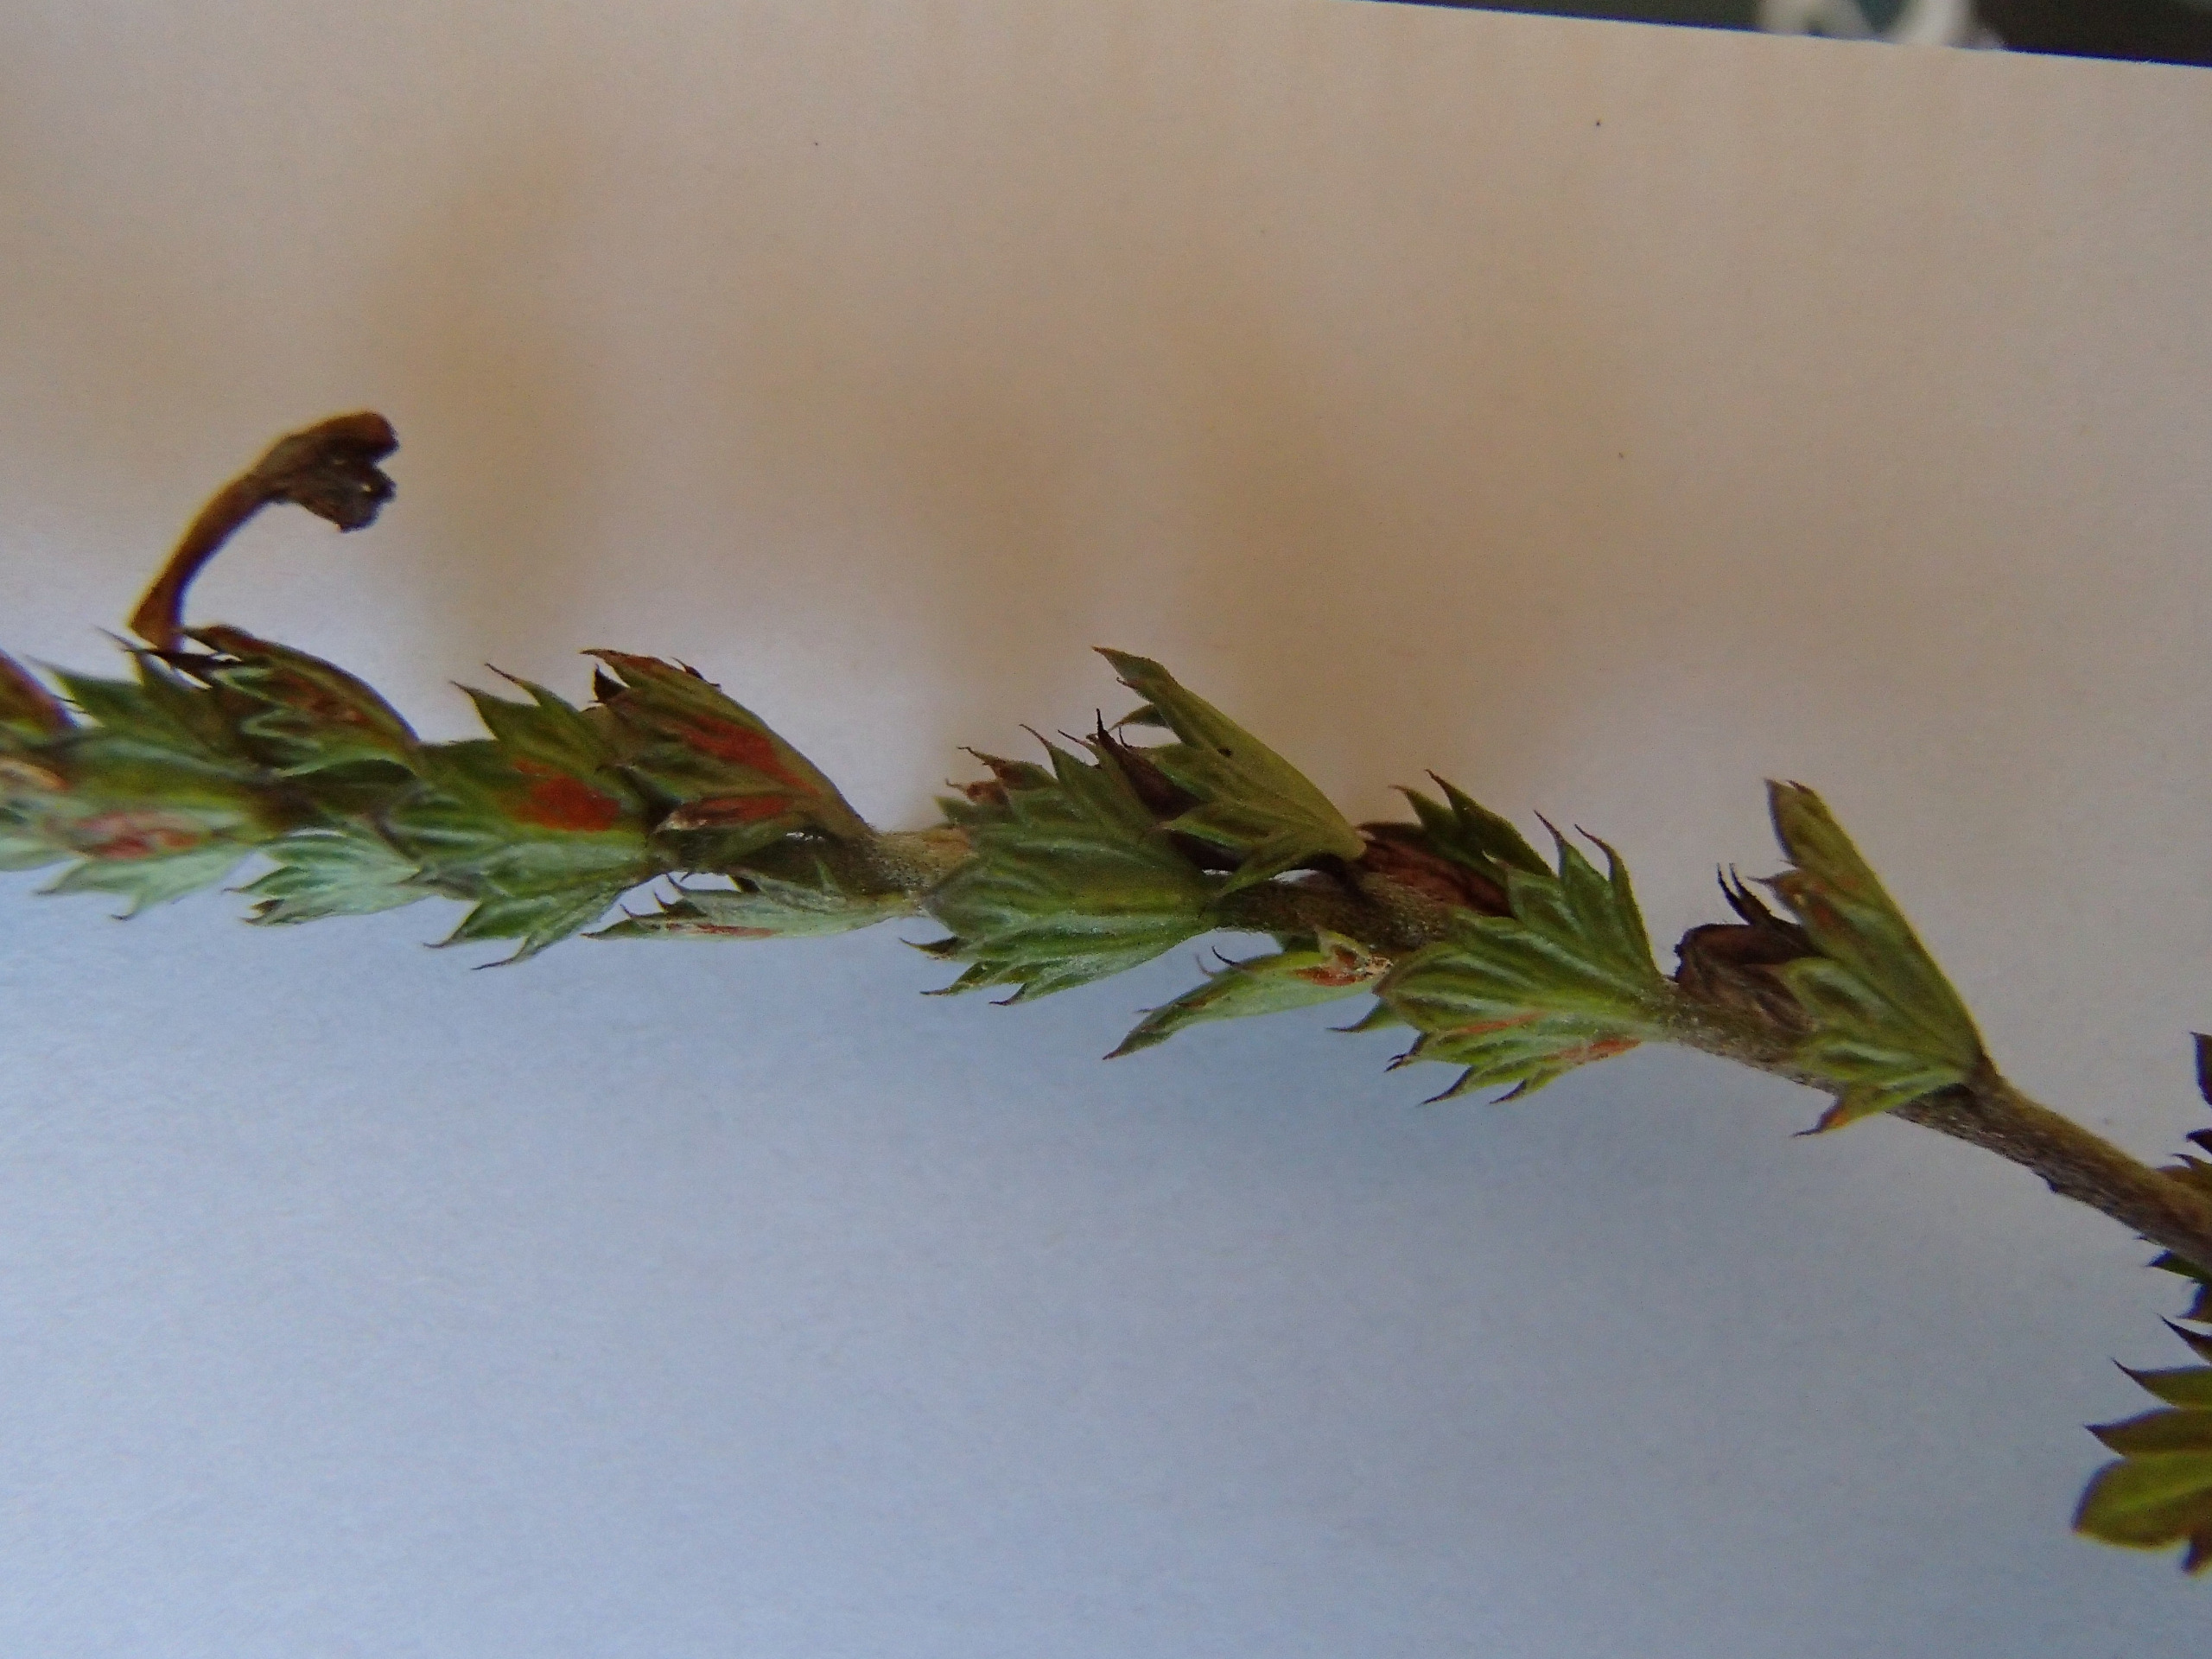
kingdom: Plantae
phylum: Tracheophyta
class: Magnoliopsida
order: Lamiales
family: Orobanchaceae
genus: Euphrasia
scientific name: Euphrasia stricta
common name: Spids øjentrøst
